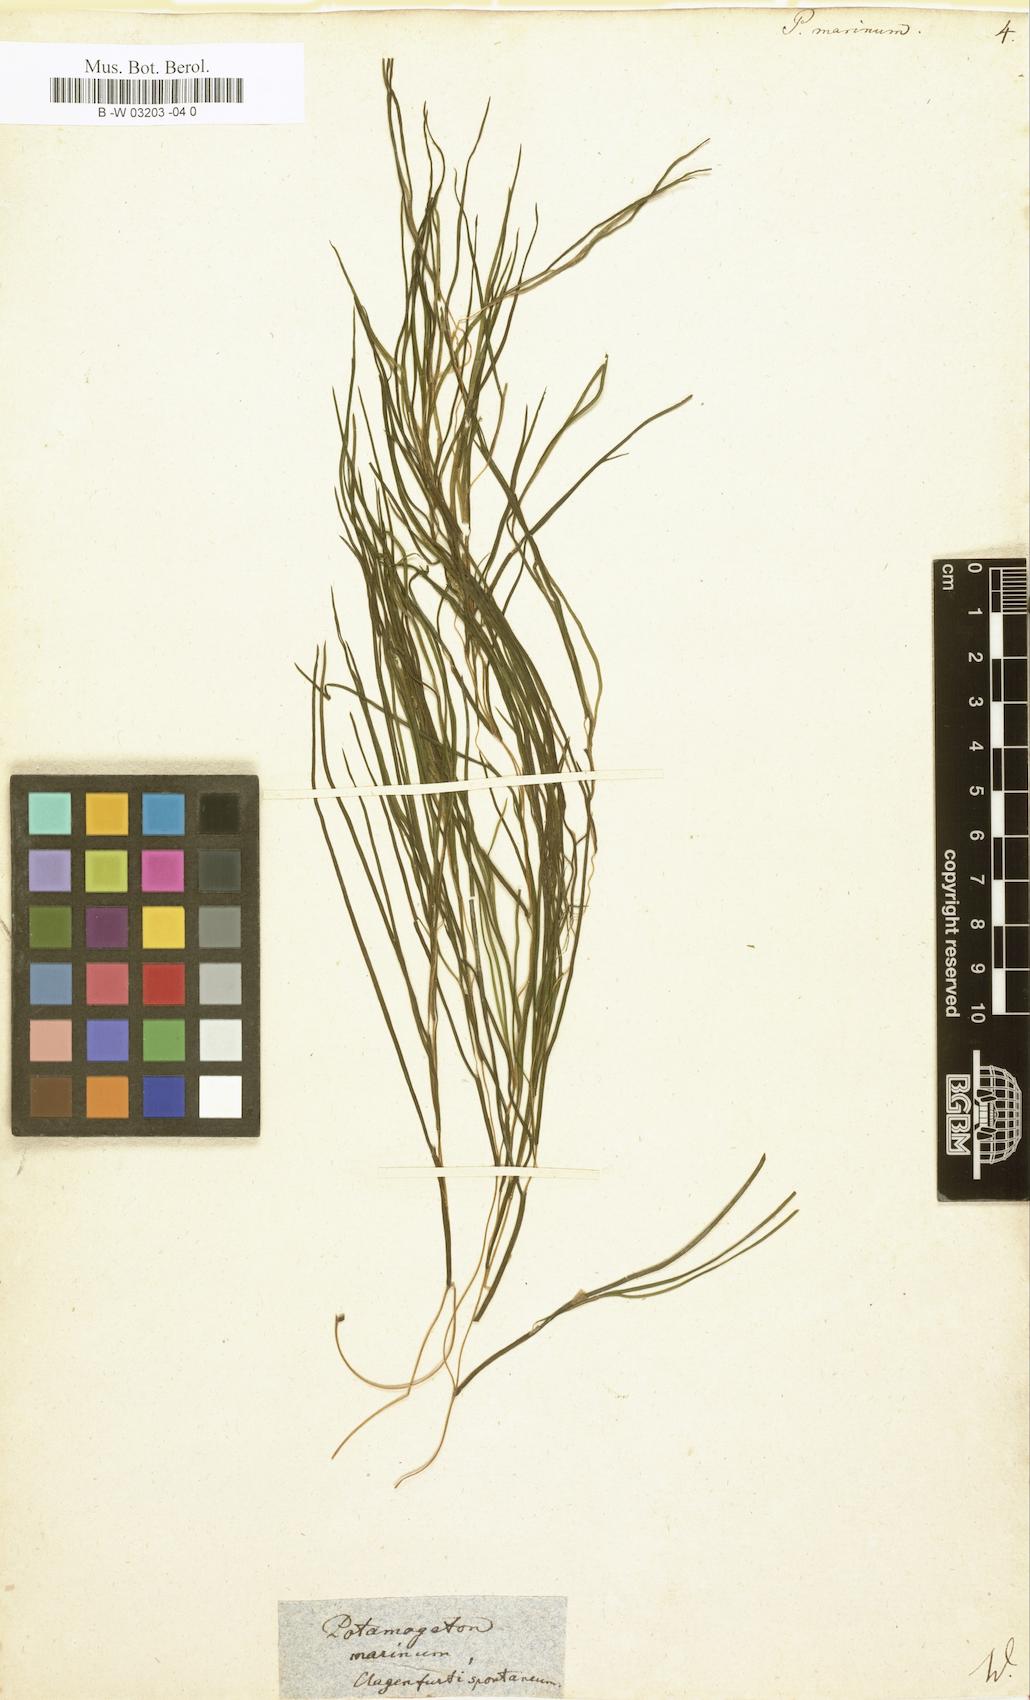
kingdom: Plantae
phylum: Tracheophyta
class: Liliopsida
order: Alismatales
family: Potamogetonaceae
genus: Potamogeton
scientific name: Potamogeton marinus
